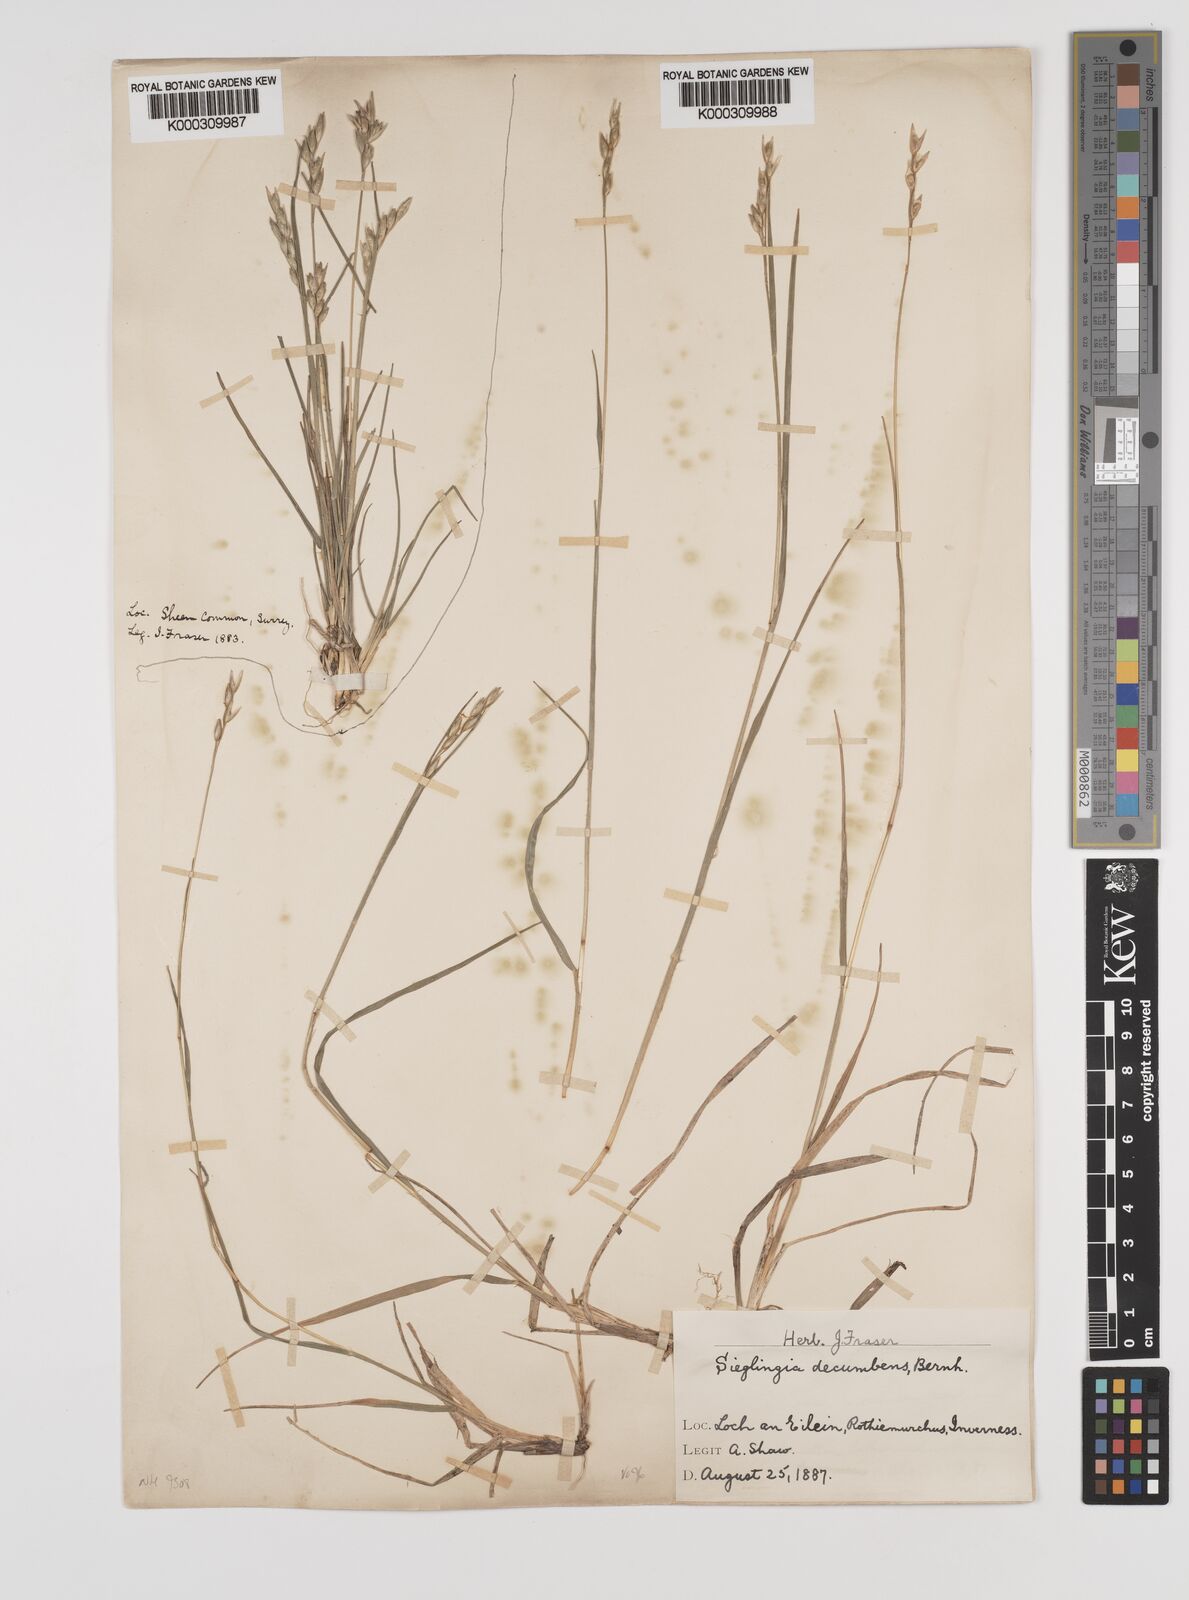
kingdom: Plantae
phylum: Tracheophyta
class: Liliopsida
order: Poales
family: Poaceae
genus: Danthonia
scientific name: Danthonia decumbens
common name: Common heathgrass
